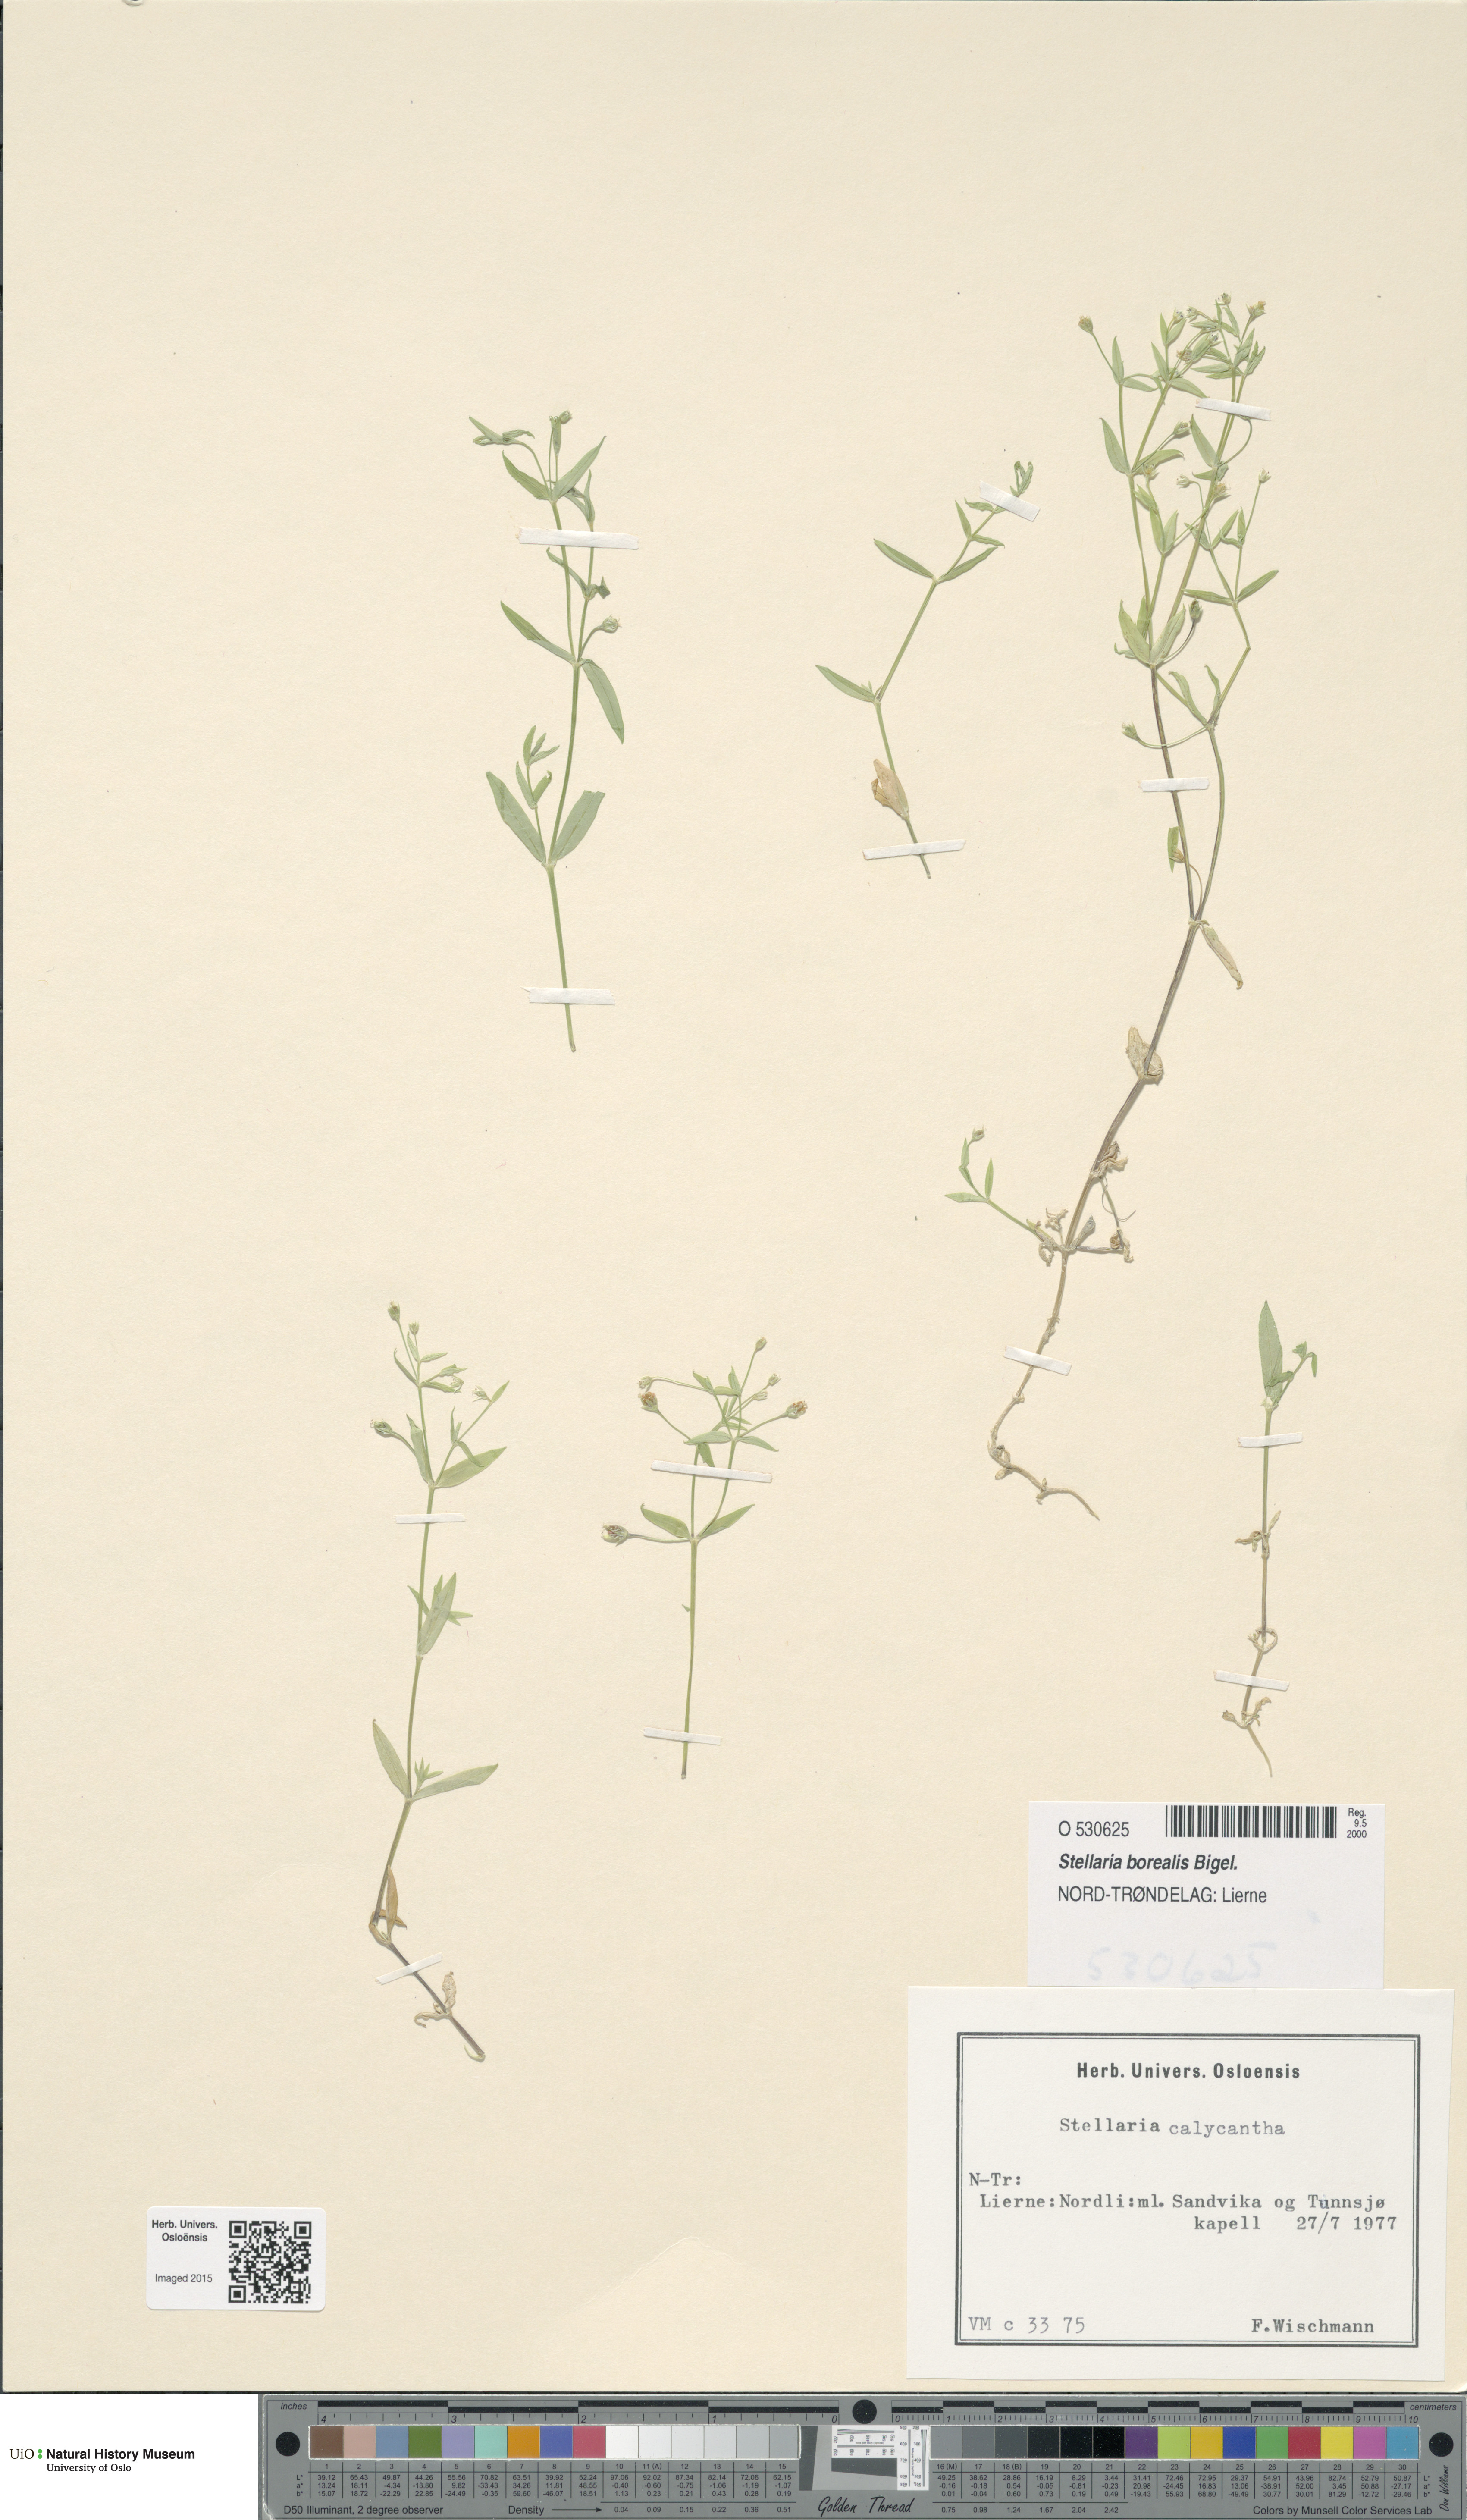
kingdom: Plantae
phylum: Tracheophyta
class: Magnoliopsida
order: Caryophyllales
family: Caryophyllaceae
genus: Stellaria
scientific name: Stellaria borealis
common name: Boreal starwort
